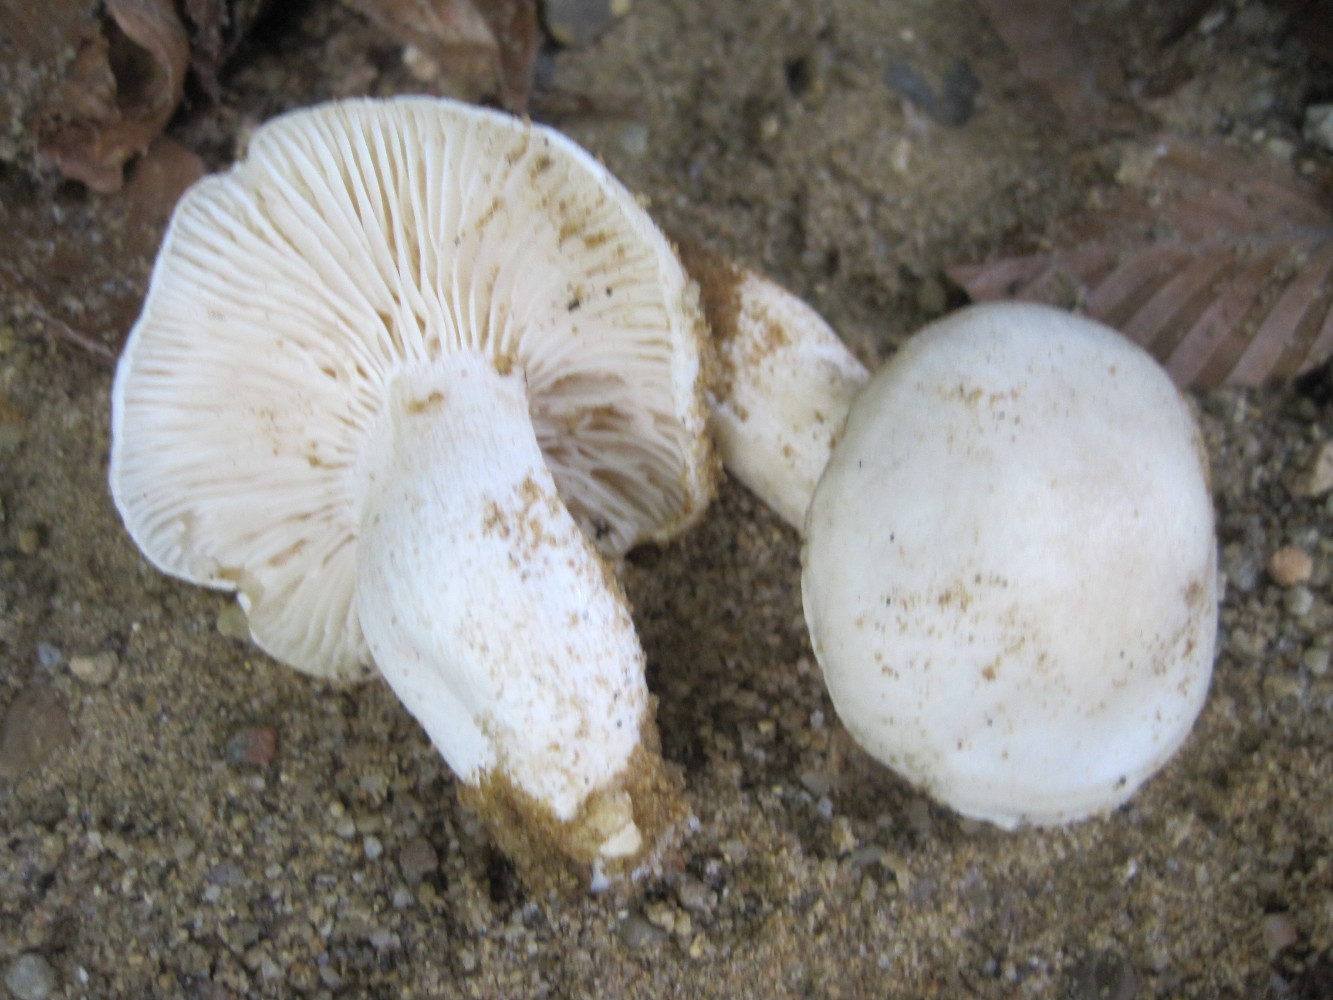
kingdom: Fungi
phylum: Basidiomycota
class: Agaricomycetes
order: Agaricales
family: Hygrophoraceae
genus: Hygrophorus
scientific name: Hygrophorus penarius
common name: spiselig sneglehat
